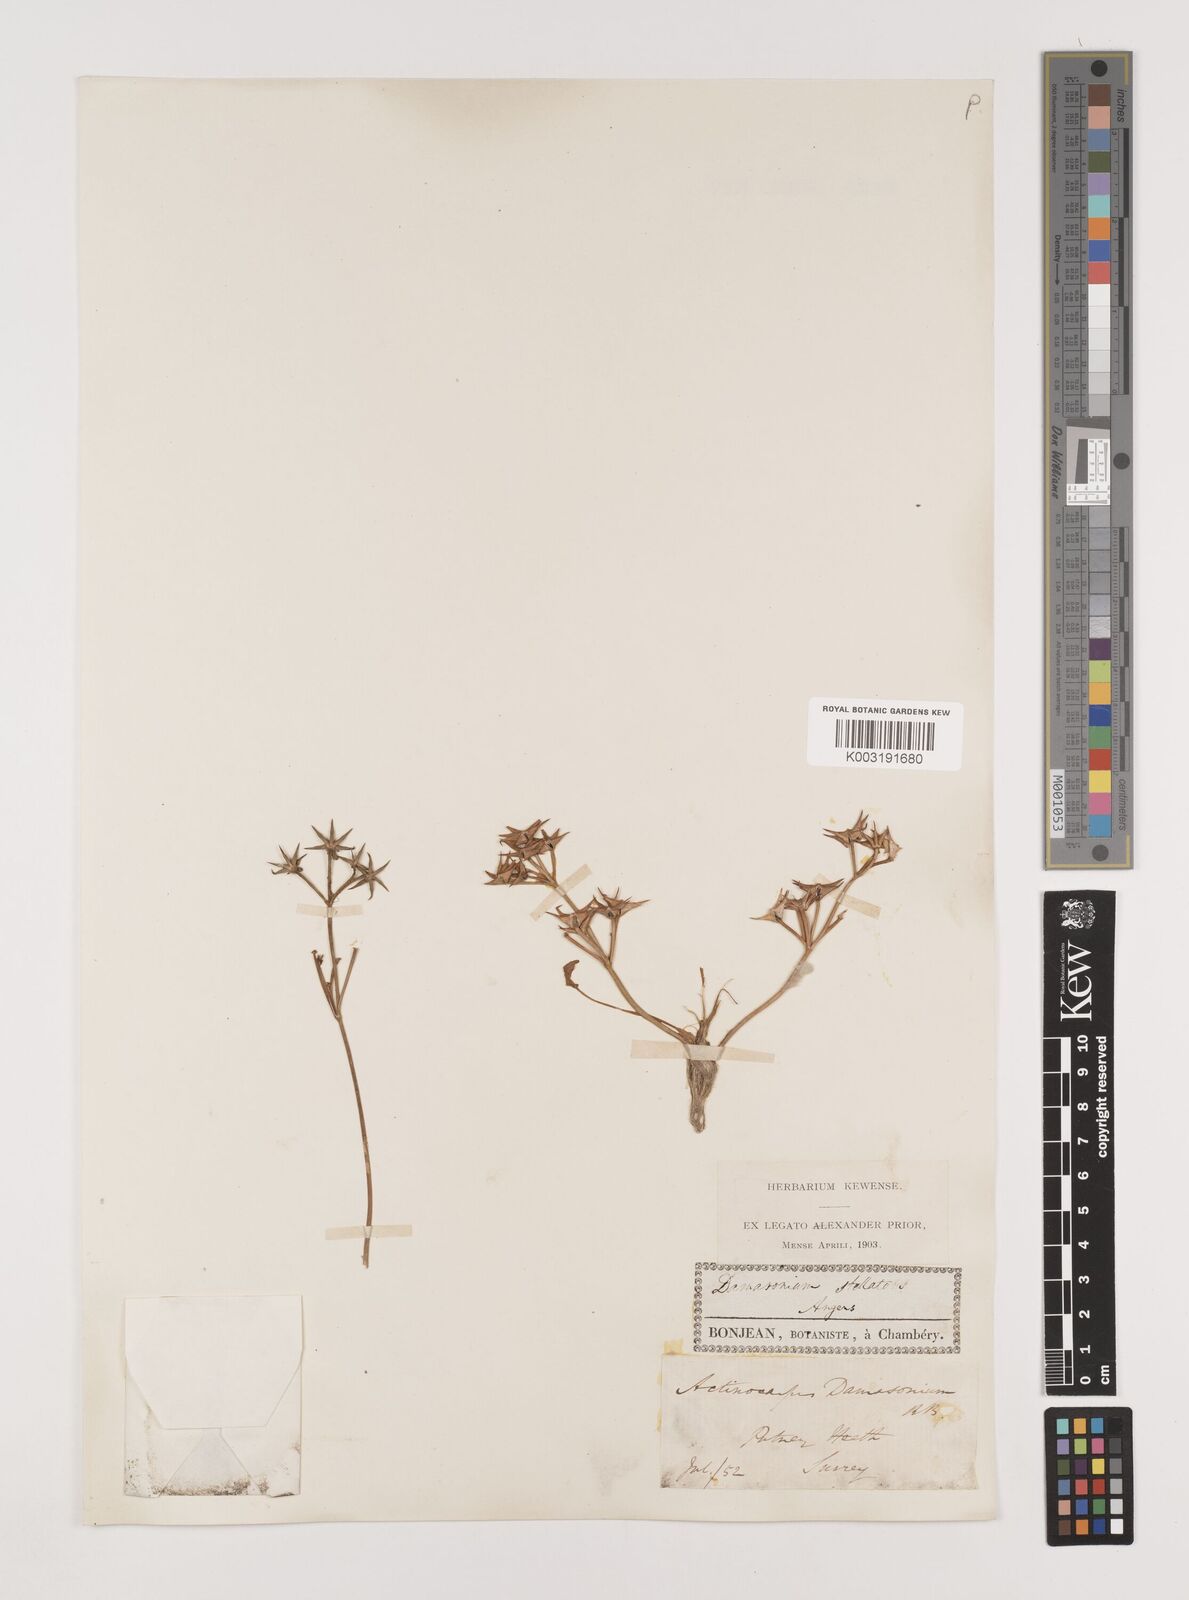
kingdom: Plantae
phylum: Tracheophyta
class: Liliopsida
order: Alismatales
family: Alismataceae
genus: Damasonium
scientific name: Damasonium alisma
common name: Starfruit
